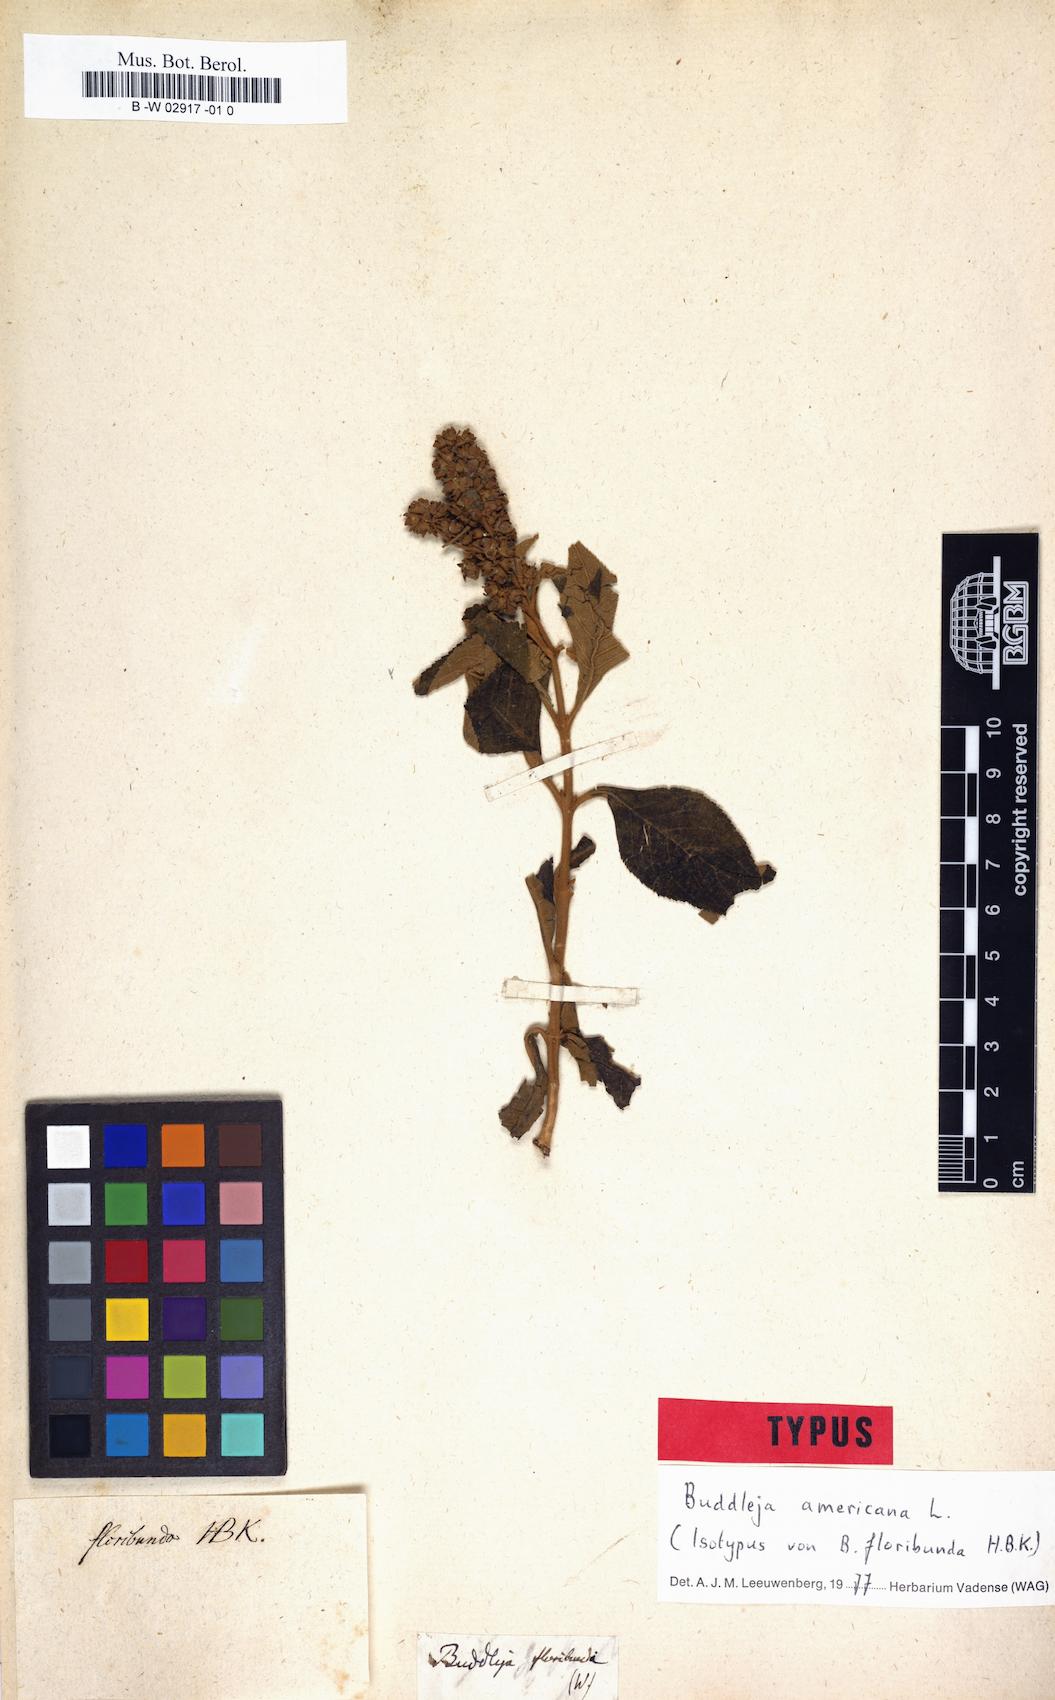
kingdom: Plantae
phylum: Tracheophyta
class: Magnoliopsida
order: Lamiales
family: Scrophulariaceae
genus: Buddleja
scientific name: Buddleja americana
